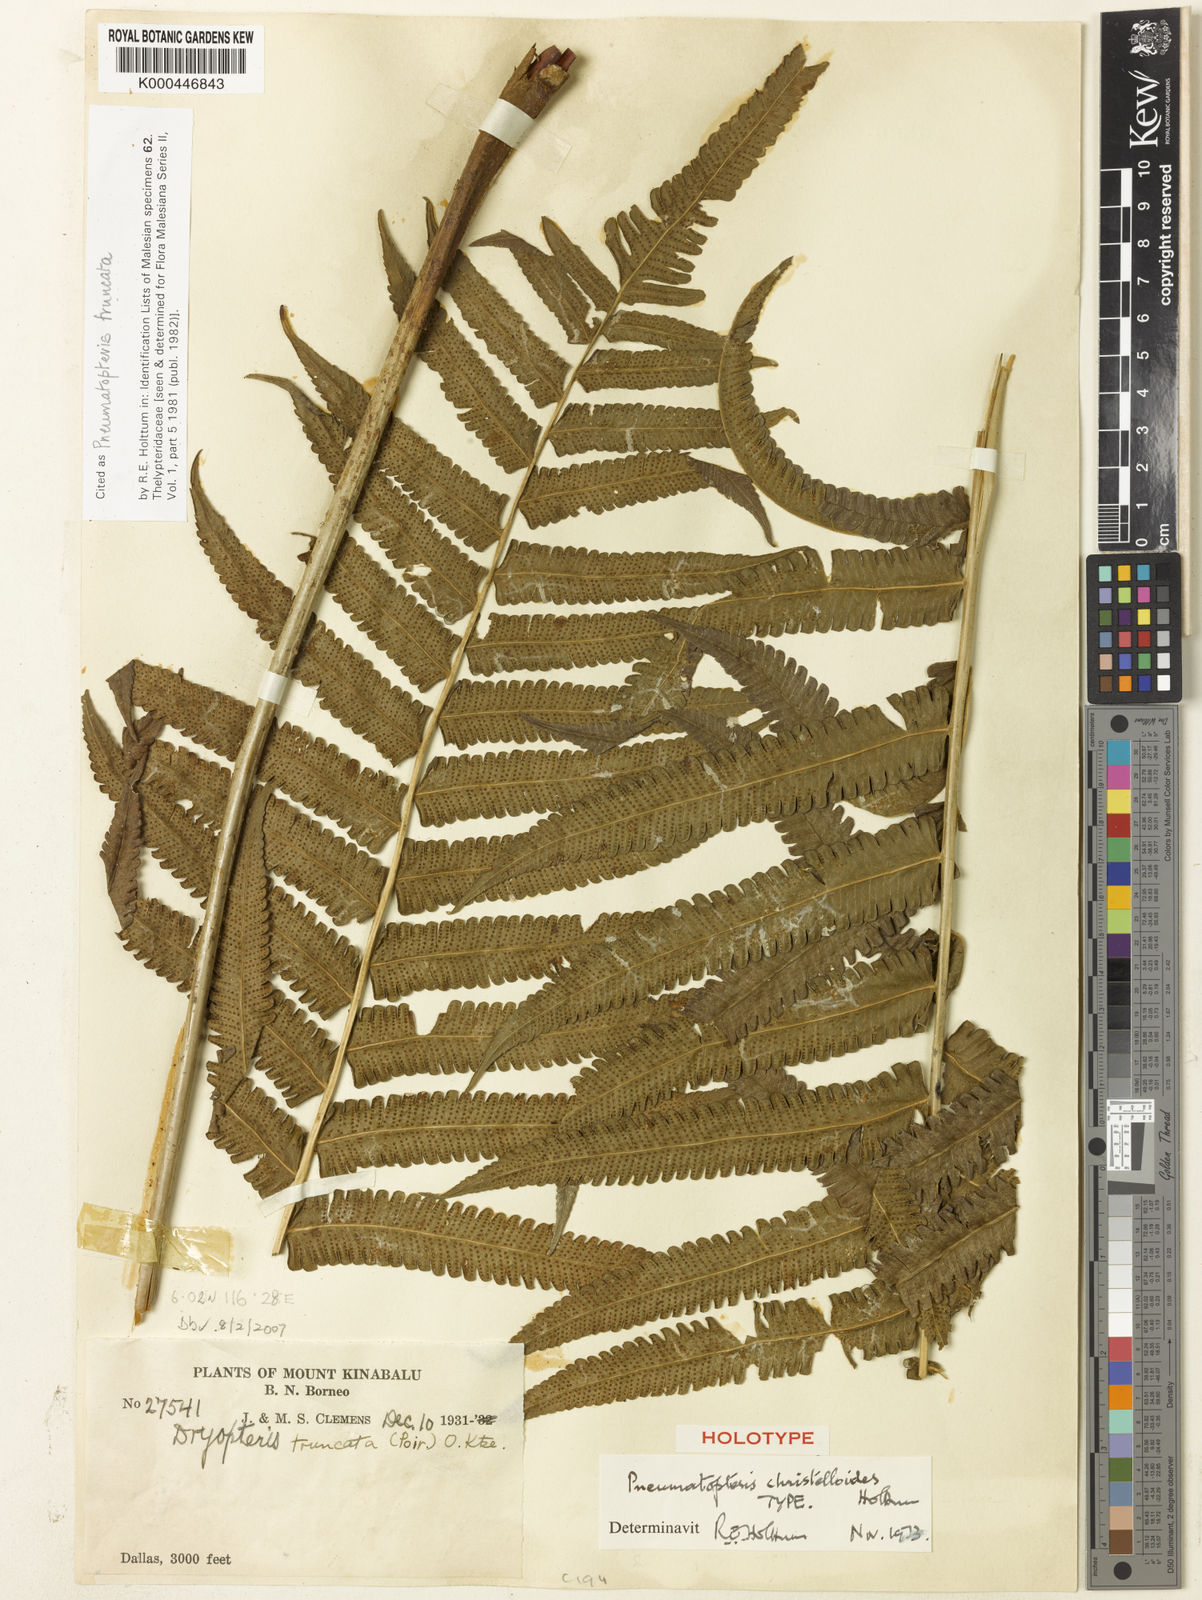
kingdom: Plantae
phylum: Tracheophyta
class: Polypodiopsida
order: Polypodiales
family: Thelypteridaceae
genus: Reholttumia
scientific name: Reholttumia truncata
